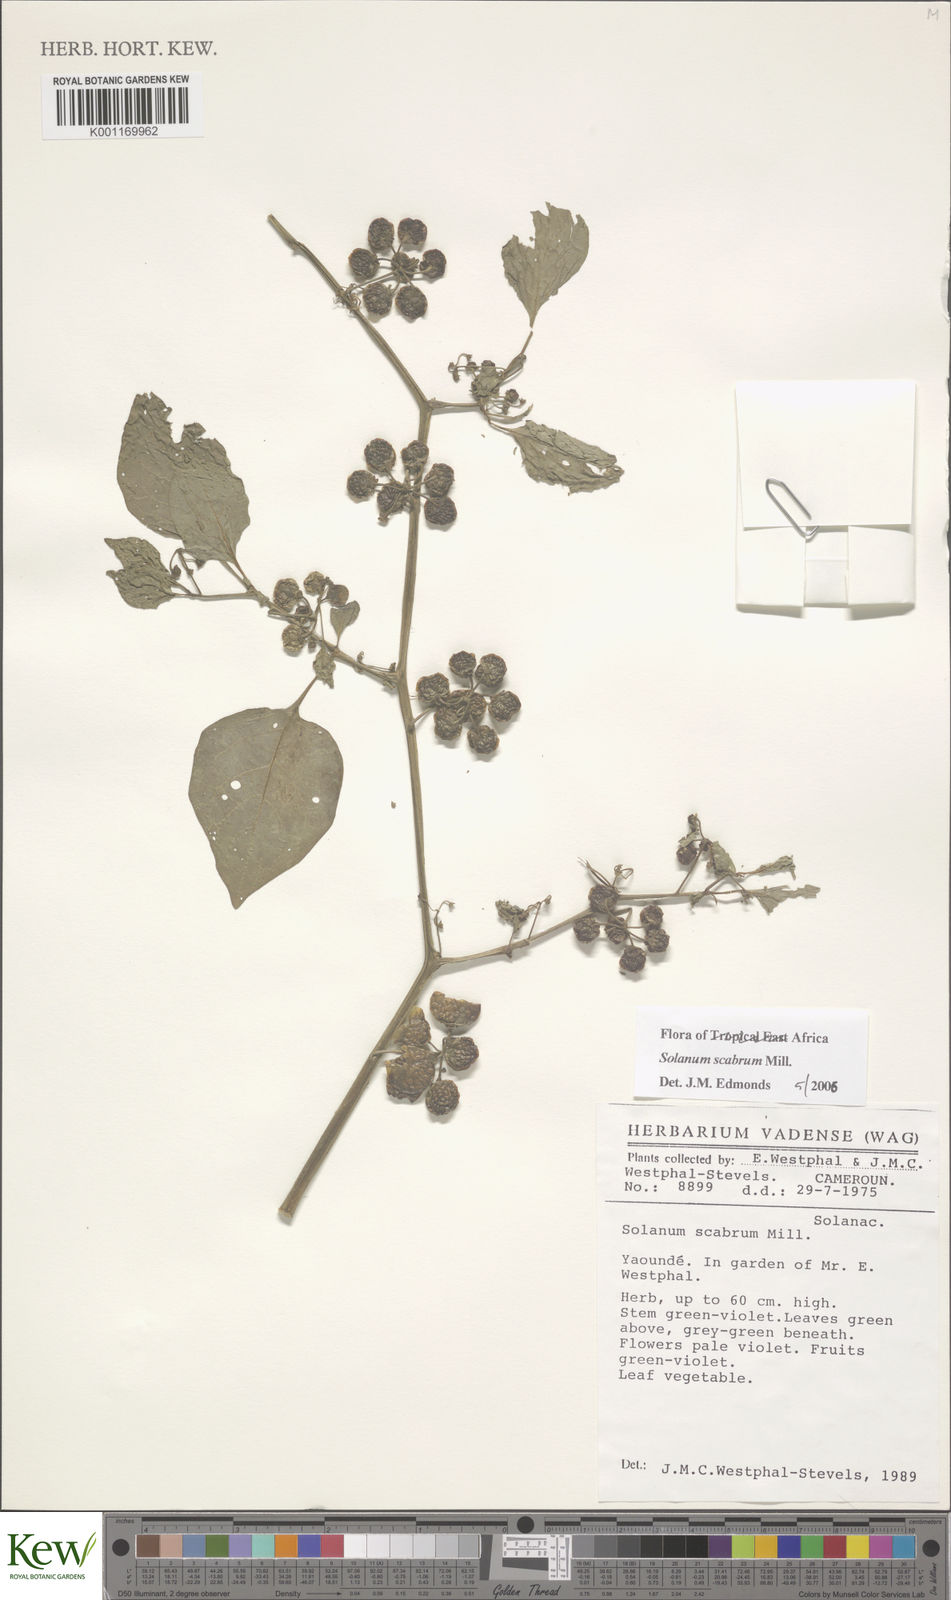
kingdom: Plantae
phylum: Tracheophyta
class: Magnoliopsida
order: Solanales
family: Solanaceae
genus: Solanum
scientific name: Solanum scabrum
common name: Garden-huckleberry
